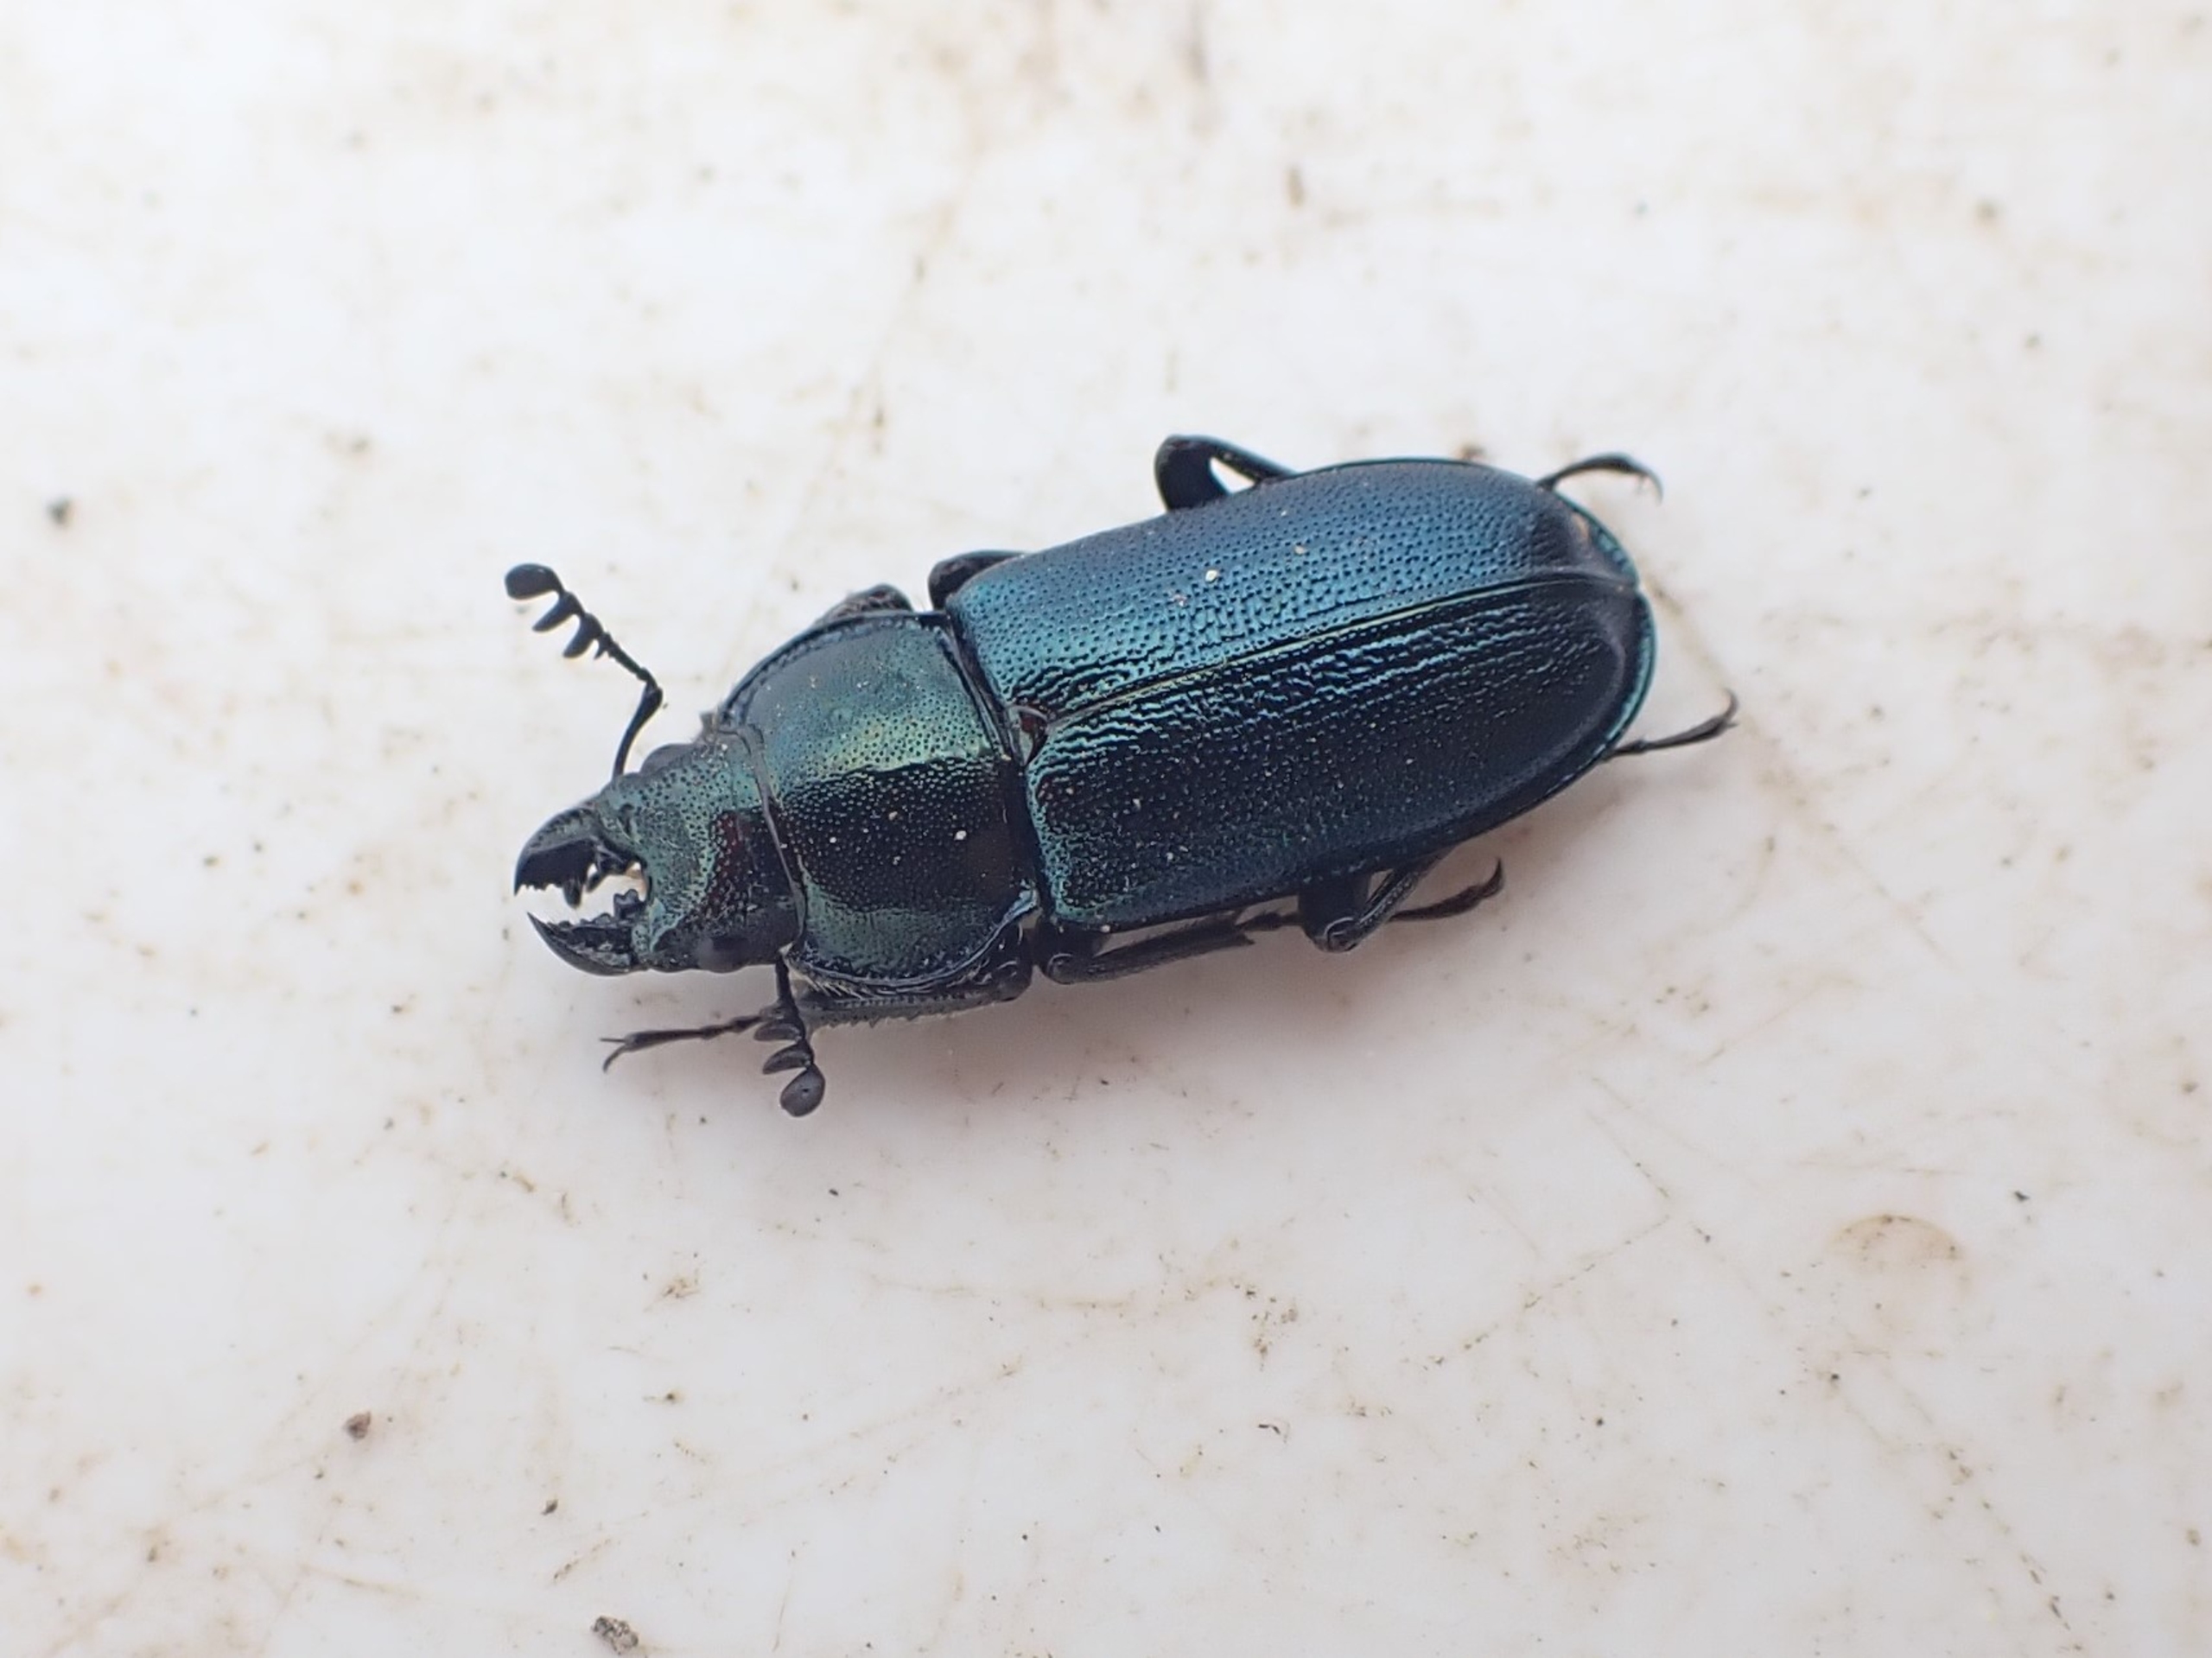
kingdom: Animalia
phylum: Arthropoda
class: Insecta
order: Coleoptera
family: Lucanidae
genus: Platycerus
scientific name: Platycerus caraboides
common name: Blåhjort
